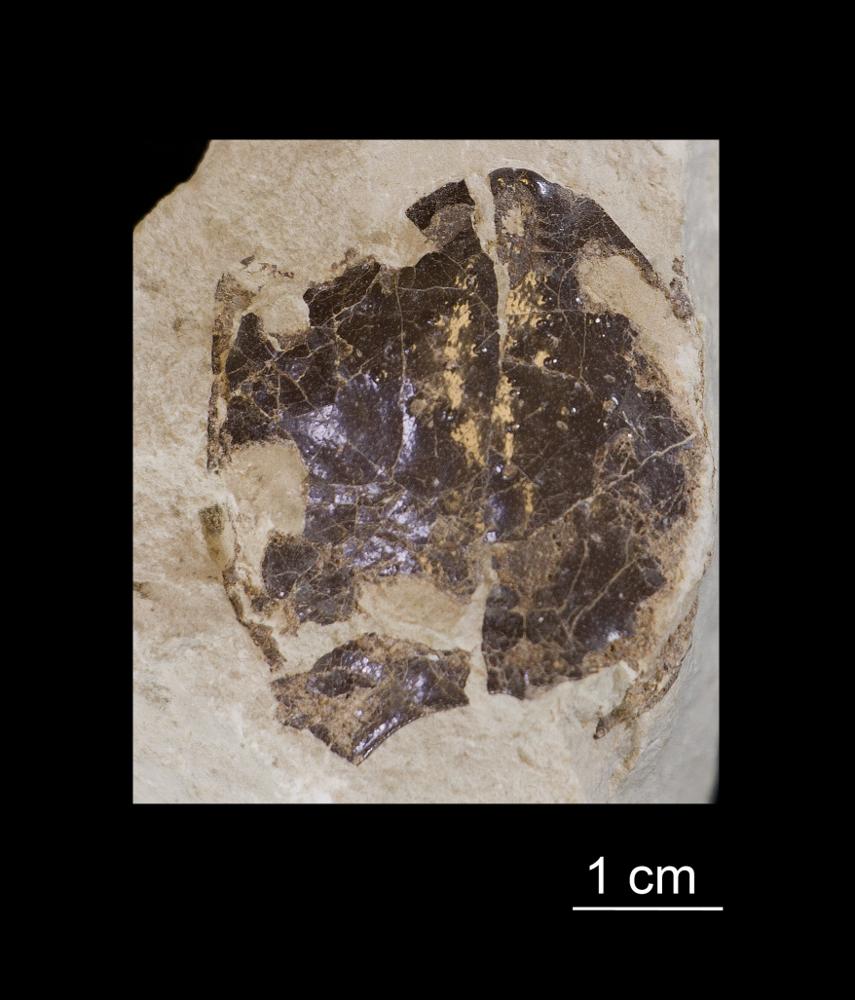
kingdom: Animalia
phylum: Chordata
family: Tremataspididae
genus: Tremataspis
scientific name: Tremataspis schmidti
